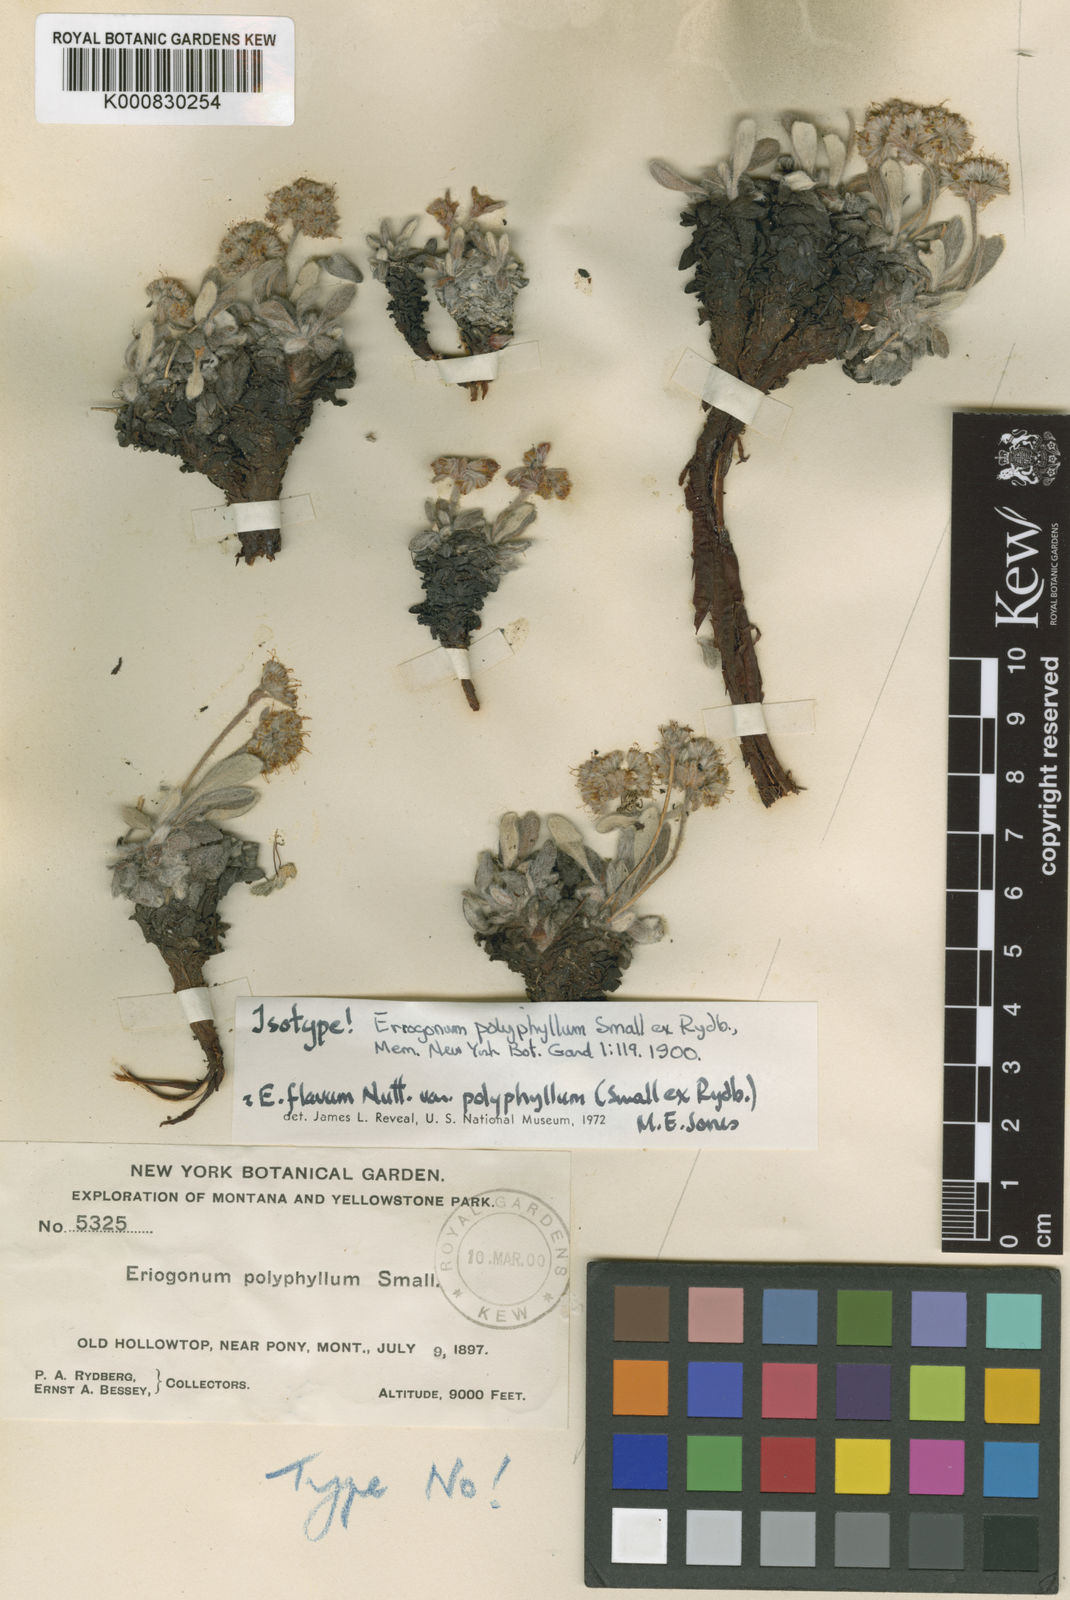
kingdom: Plantae
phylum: Tracheophyta
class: Magnoliopsida
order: Caryophyllales
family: Polygonaceae
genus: Eriogonum
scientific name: Eriogonum
